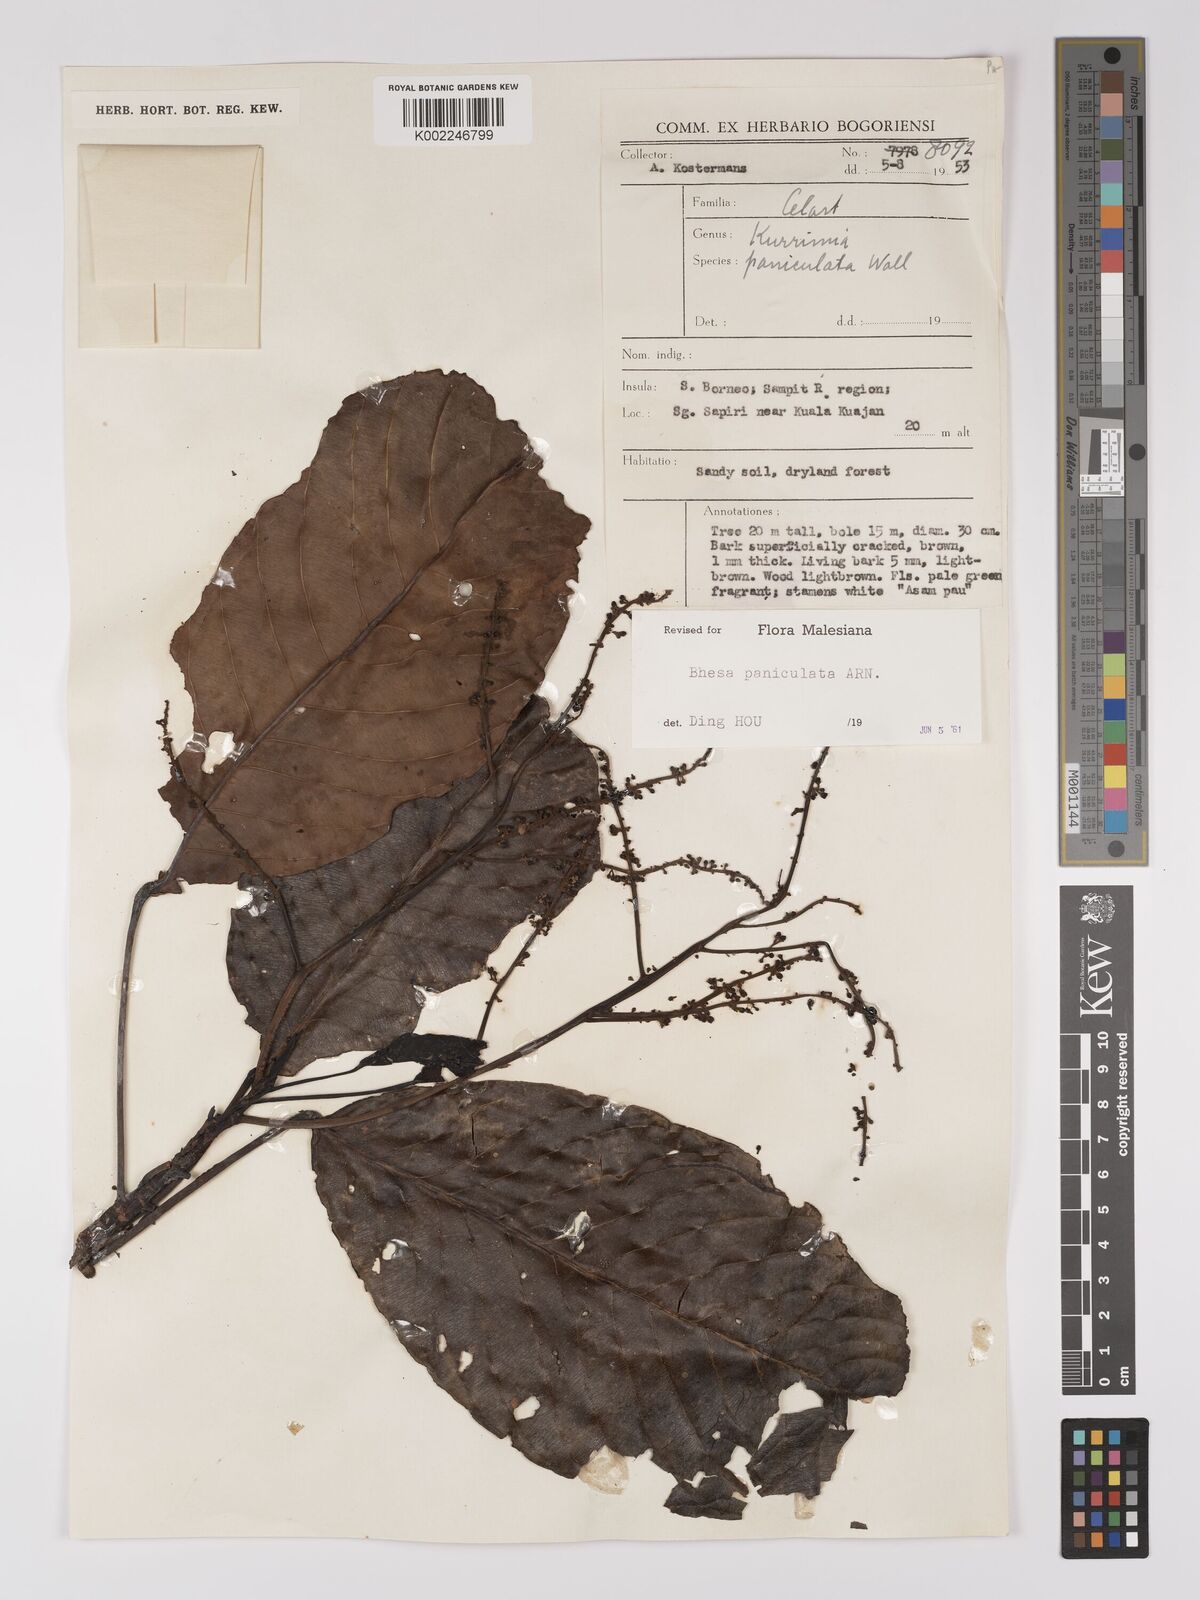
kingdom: Plantae
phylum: Tracheophyta
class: Magnoliopsida
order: Malpighiales
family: Centroplacaceae
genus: Bhesa
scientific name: Bhesa paniculata
